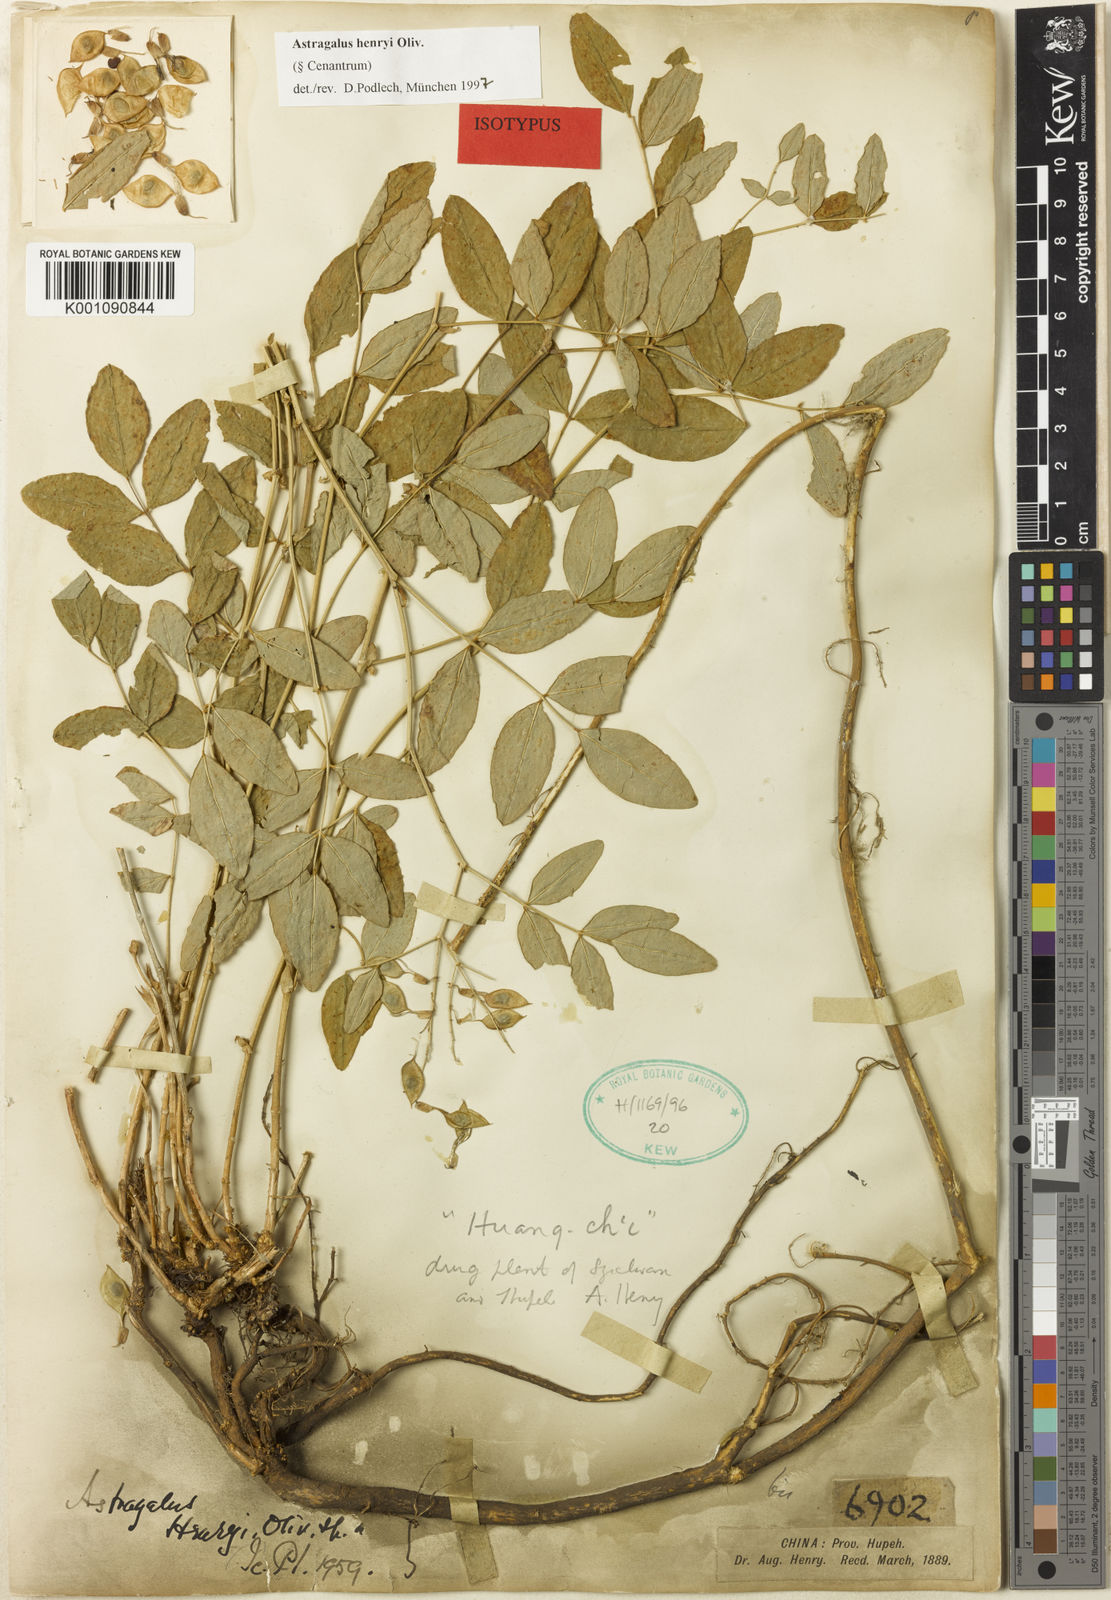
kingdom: Plantae
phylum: Tracheophyta
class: Magnoliopsida
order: Fabales
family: Fabaceae
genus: Astragalus
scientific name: Astragalus
